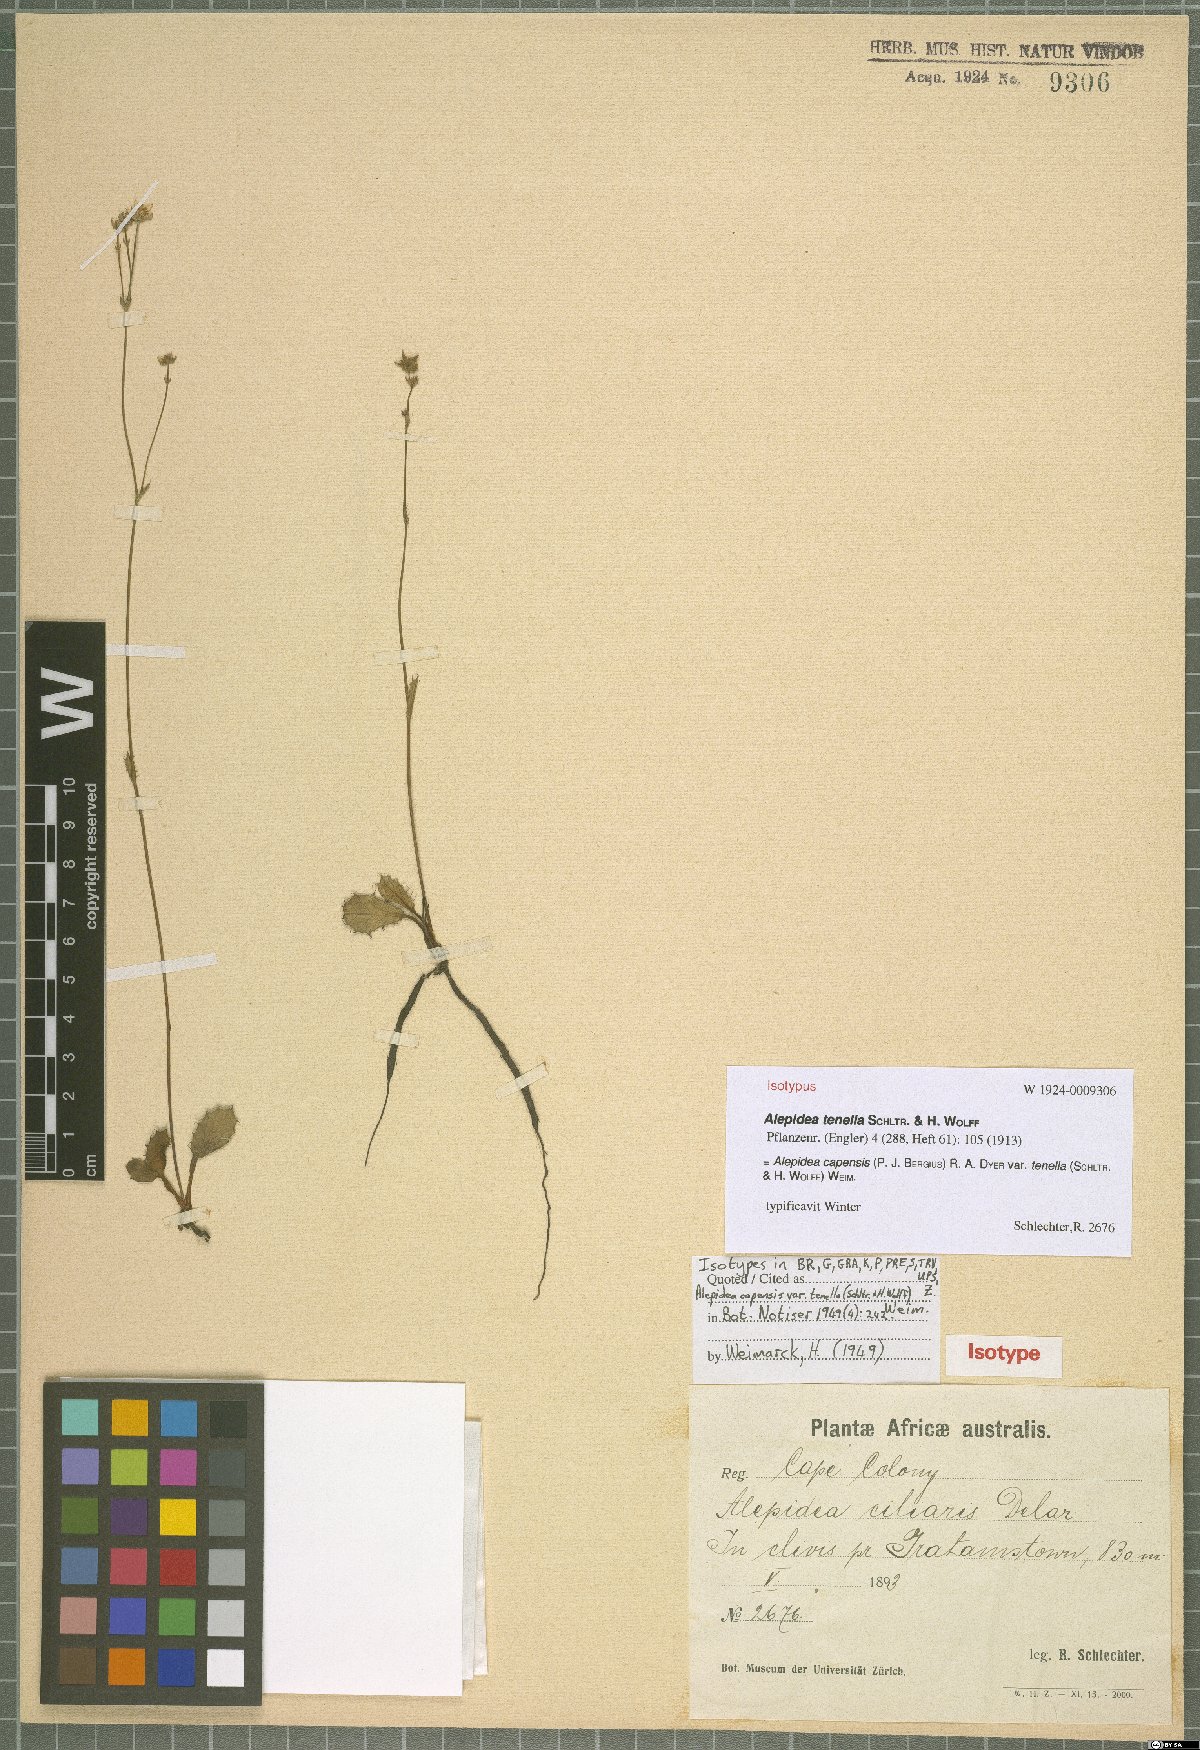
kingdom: Plantae
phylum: Tracheophyta
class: Magnoliopsida
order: Apiales
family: Apiaceae
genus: Alepidea
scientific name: Alepidea capensis
